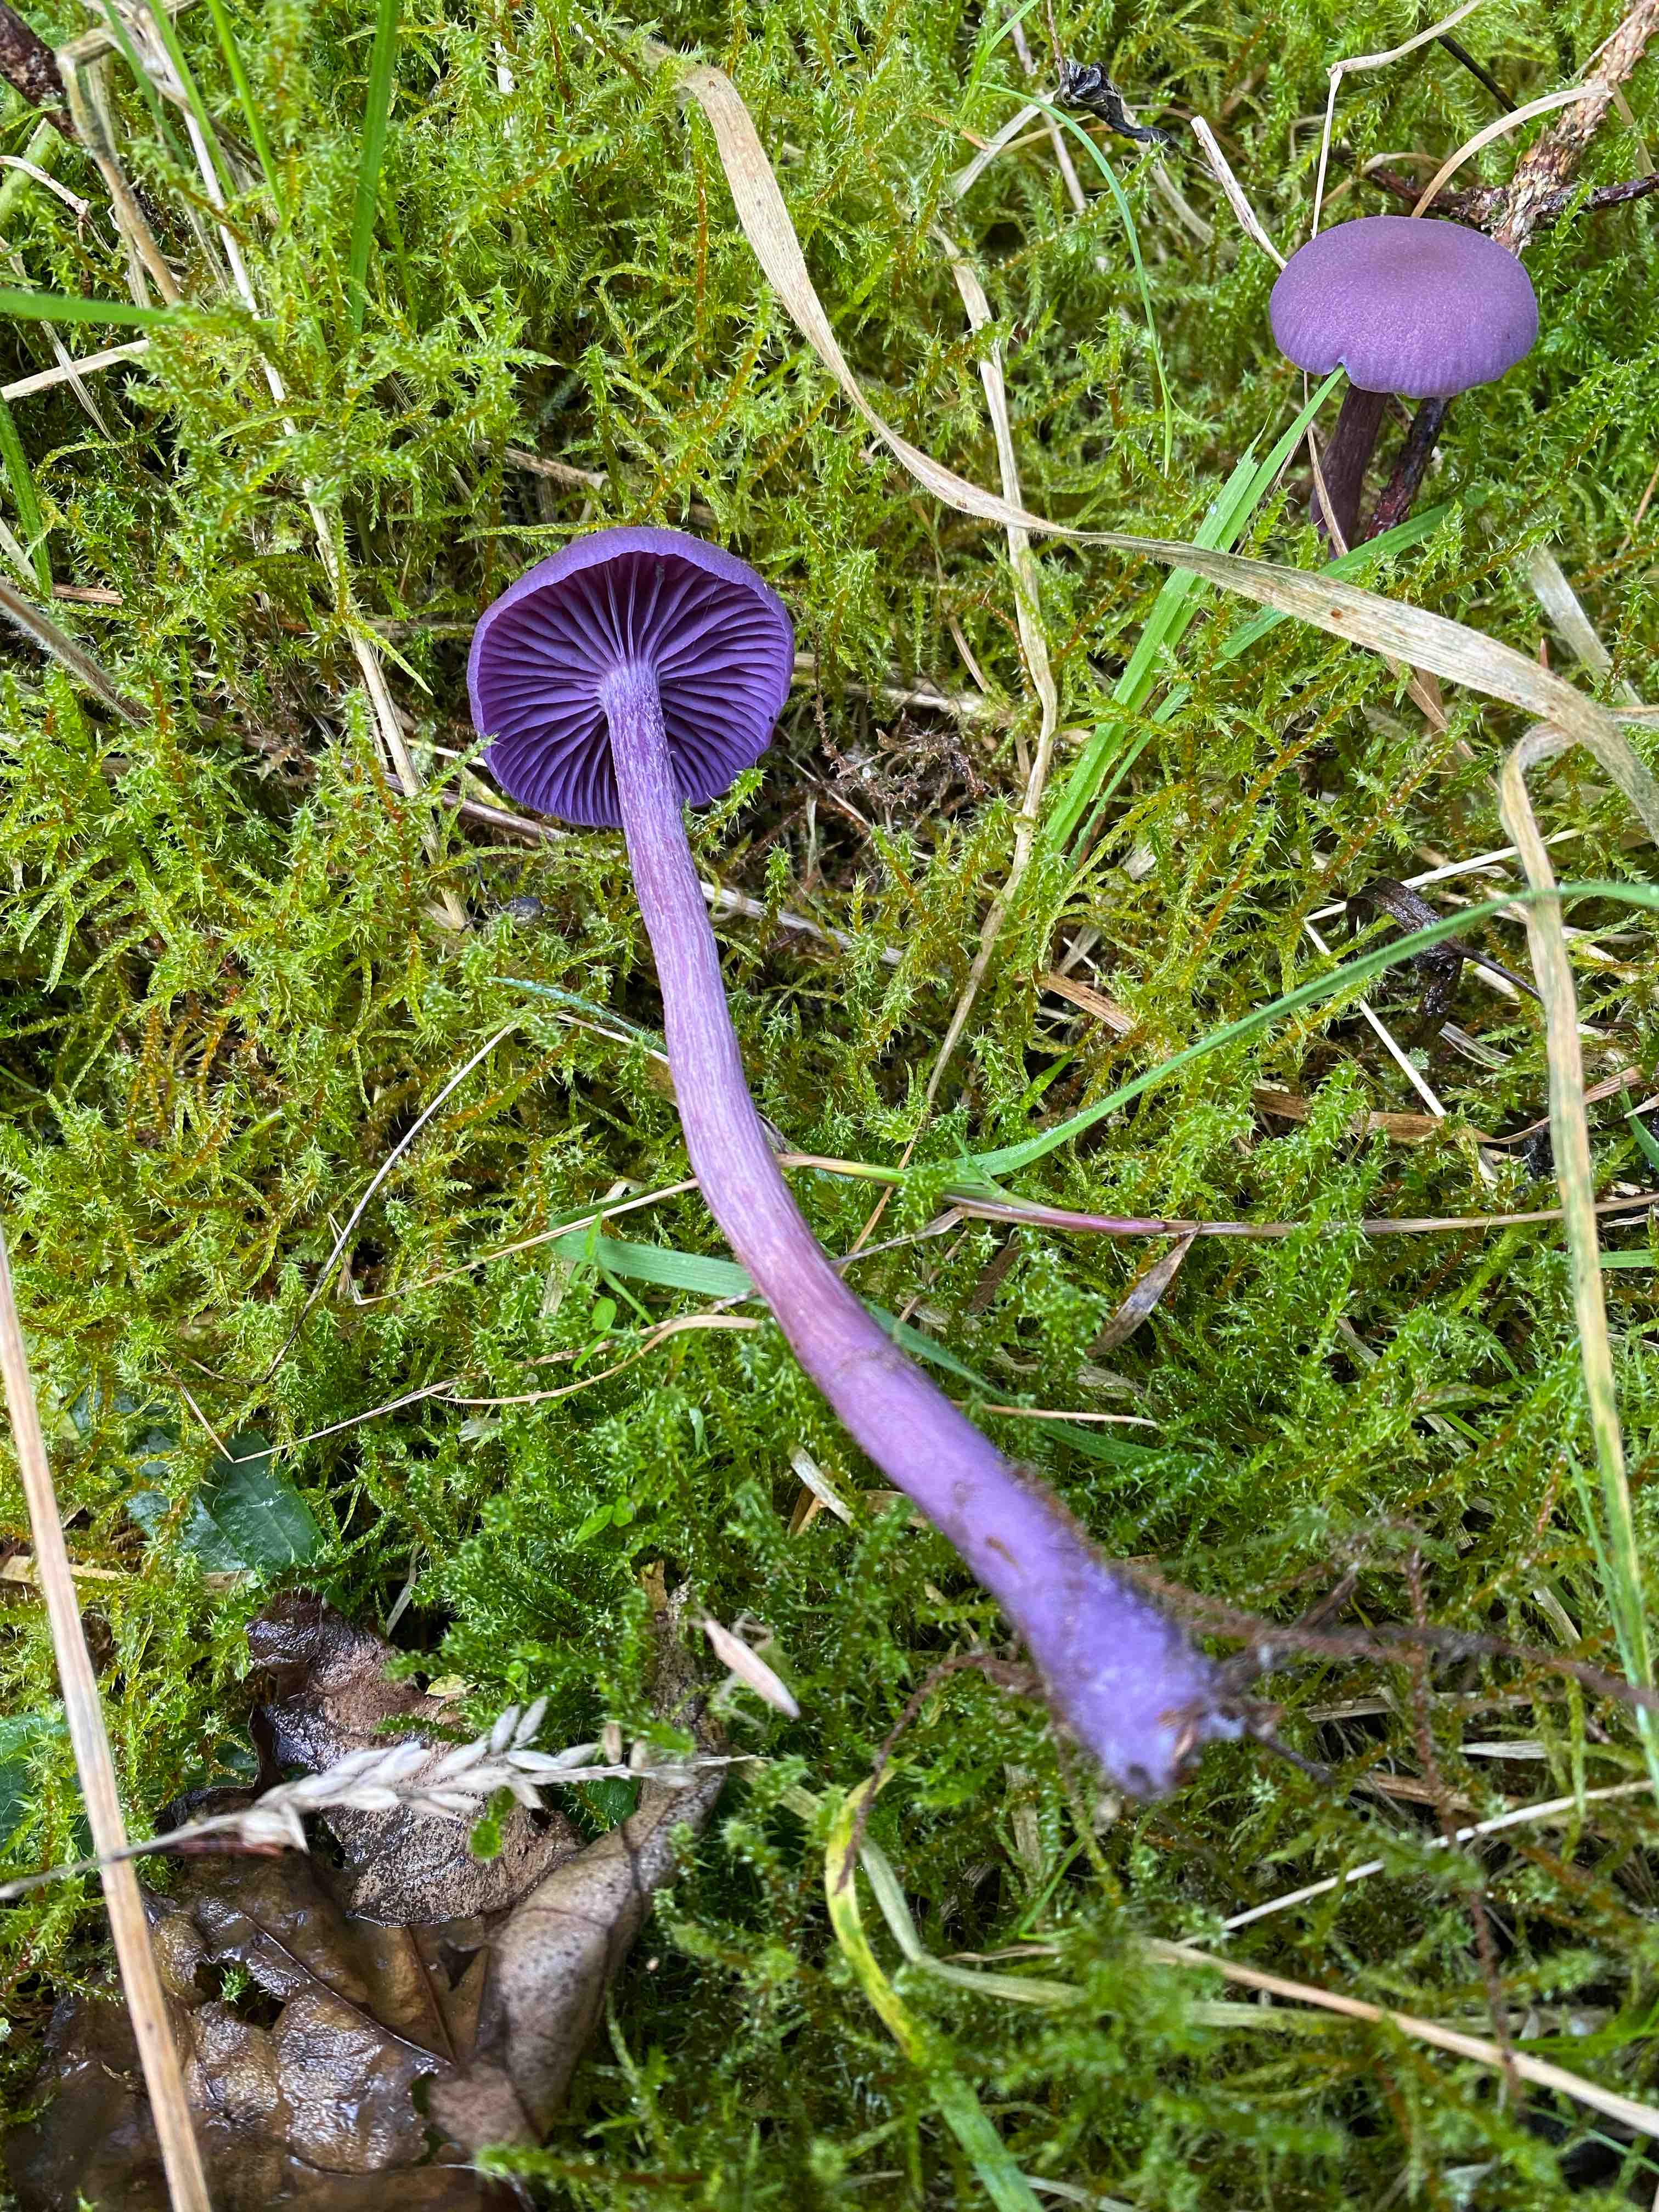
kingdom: Fungi
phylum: Basidiomycota
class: Agaricomycetes
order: Agaricales
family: Hydnangiaceae
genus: Laccaria
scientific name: Laccaria amethystina
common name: violet ametysthat
